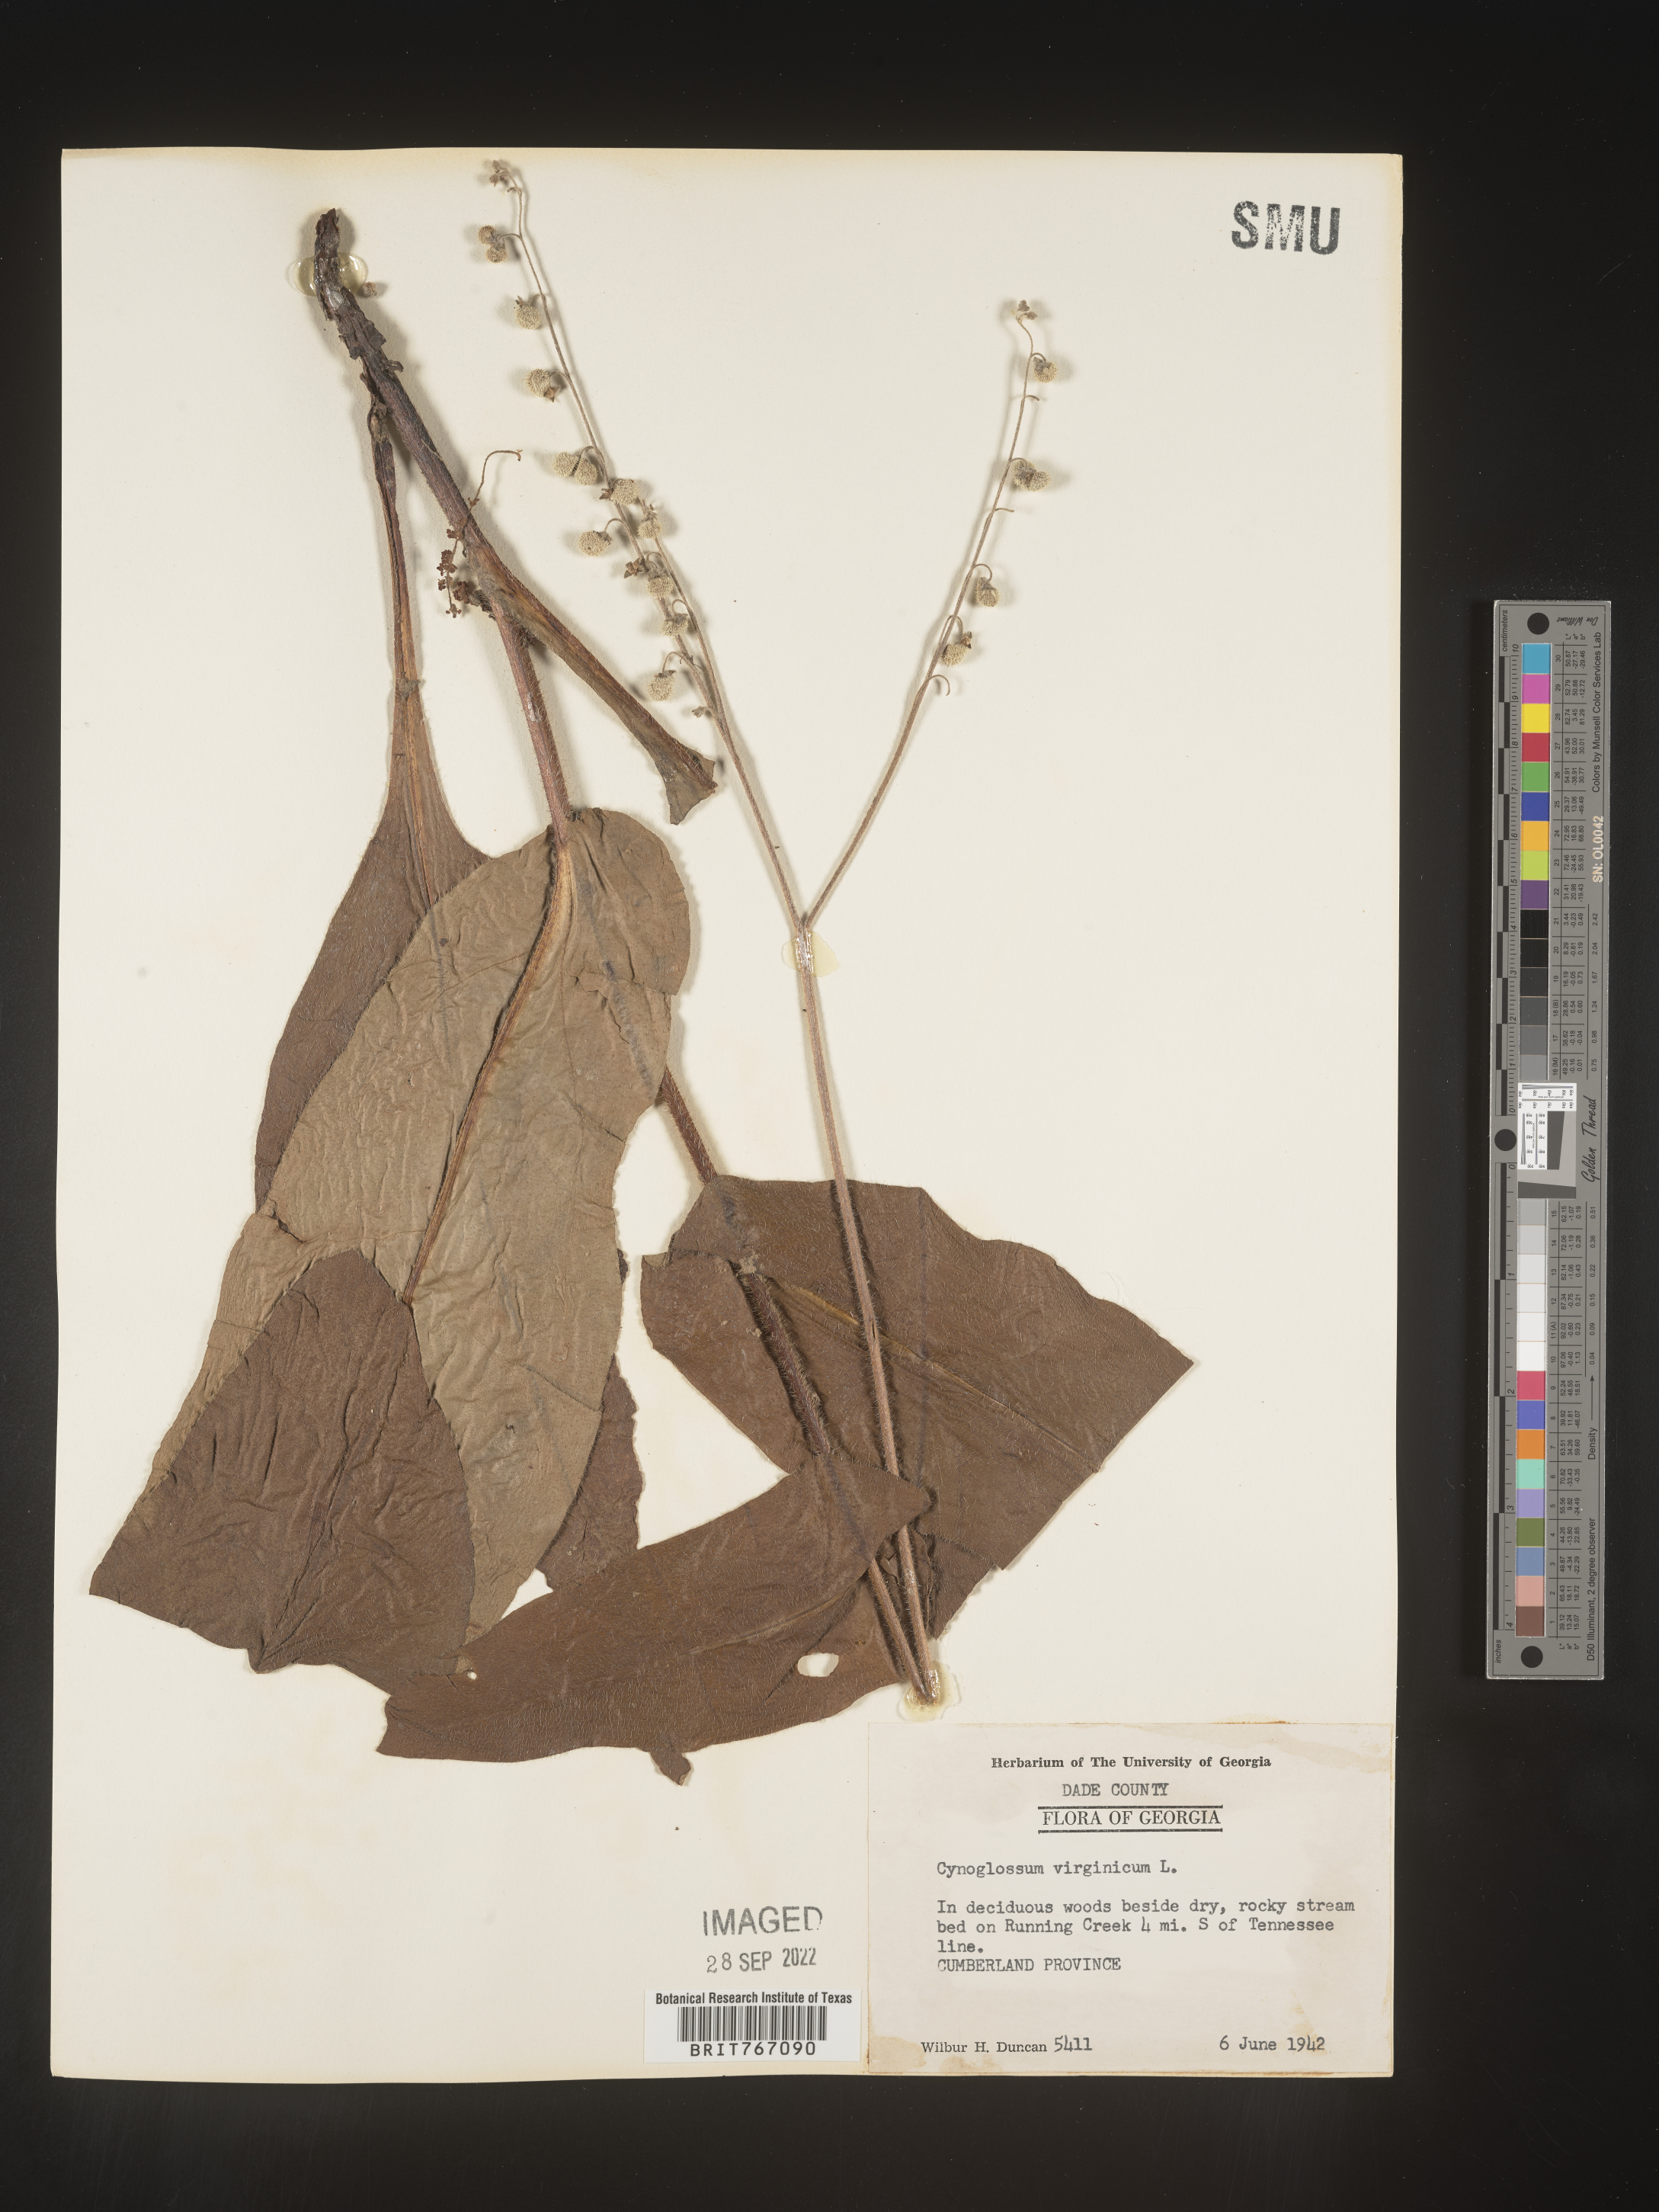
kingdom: Plantae
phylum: Tracheophyta
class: Magnoliopsida
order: Boraginales
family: Boraginaceae
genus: Andersonglossum
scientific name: Andersonglossum virginianum
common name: Wild comfrey
